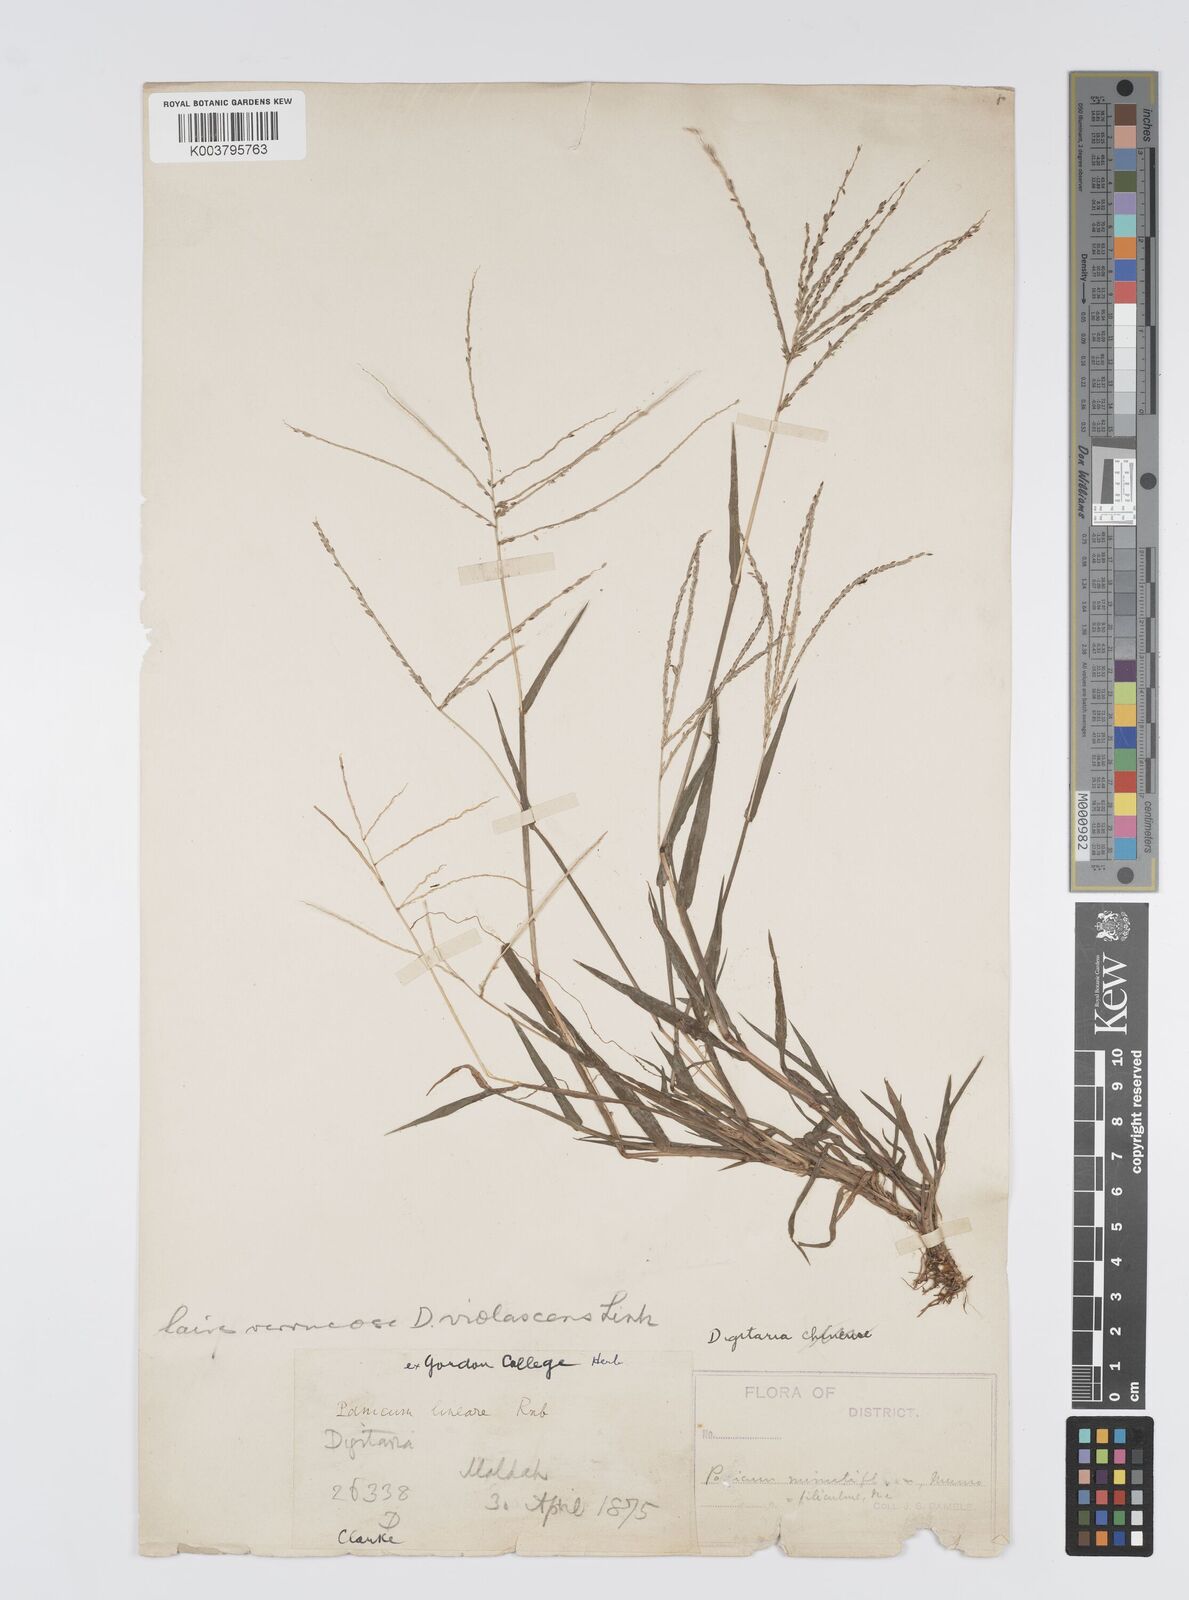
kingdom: Plantae
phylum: Tracheophyta
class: Liliopsida
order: Poales
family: Poaceae
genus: Digitaria
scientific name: Digitaria violascens
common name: Violet crabgrass
